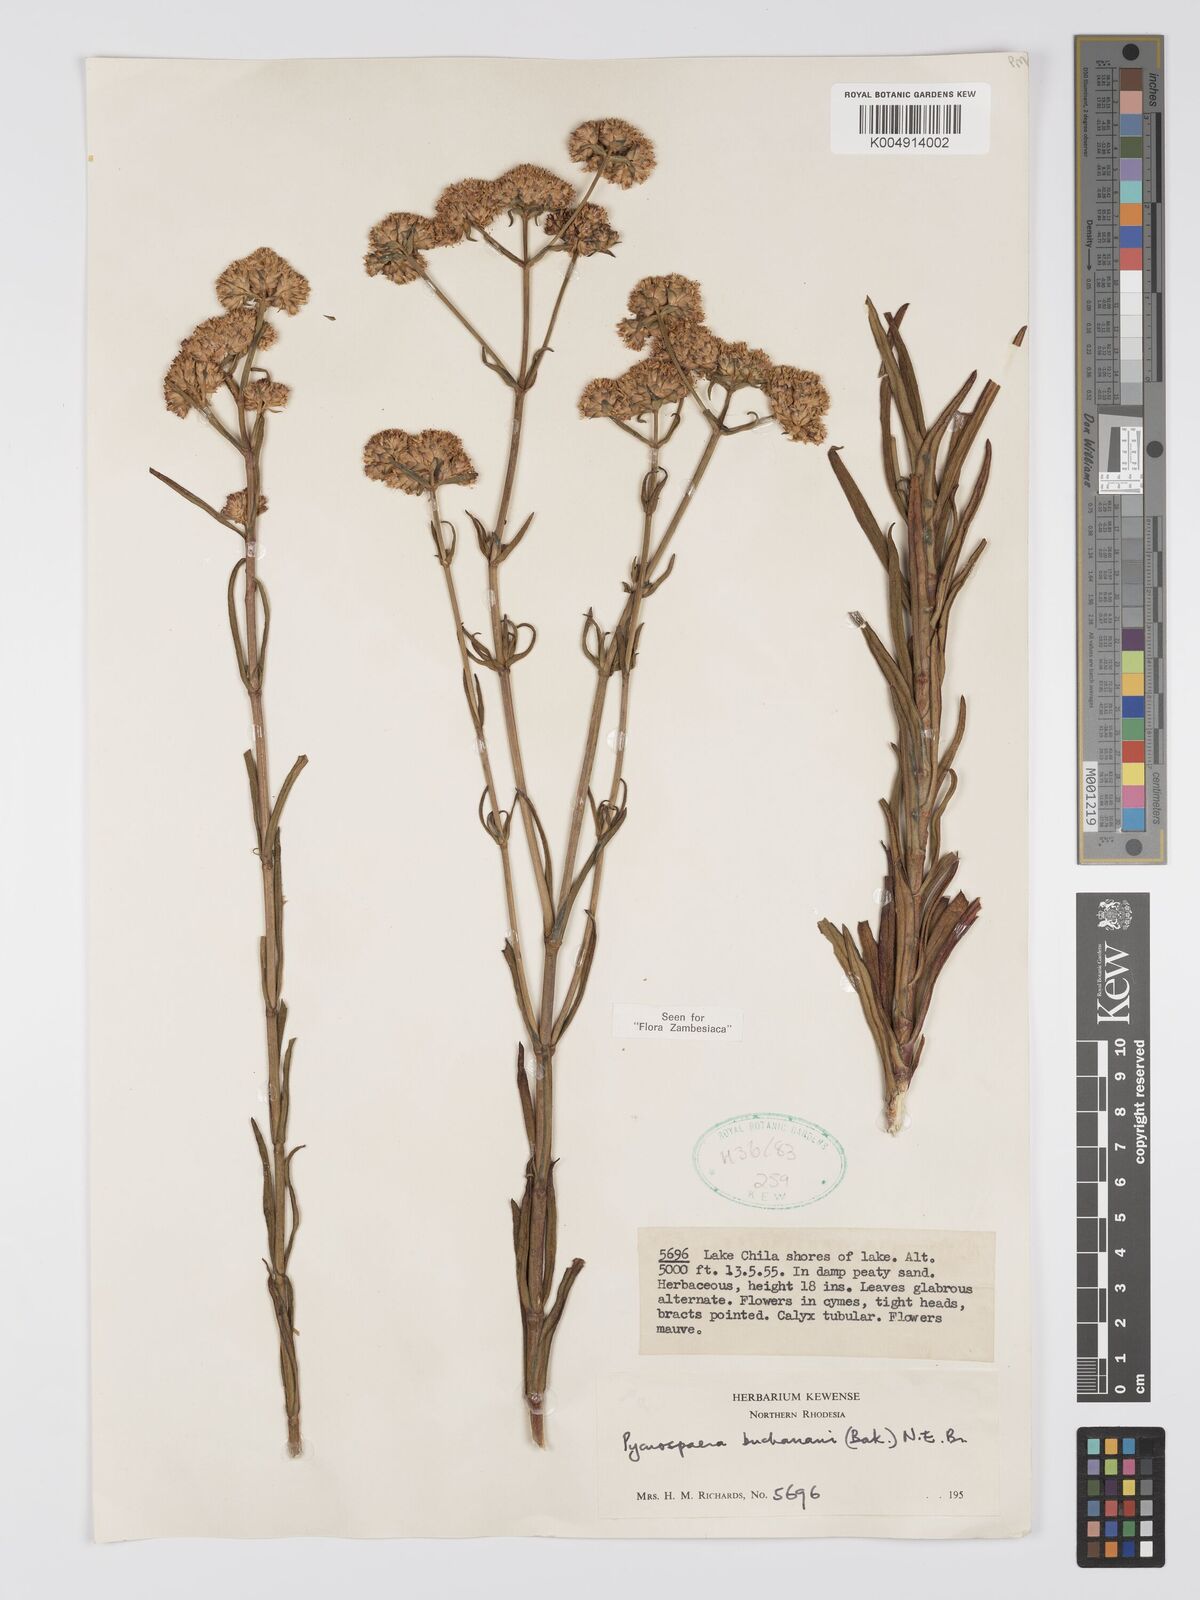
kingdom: Plantae
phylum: Tracheophyta
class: Magnoliopsida
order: Gentianales
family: Gentianaceae
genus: Pycnosphaera
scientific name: Pycnosphaera buchananii
